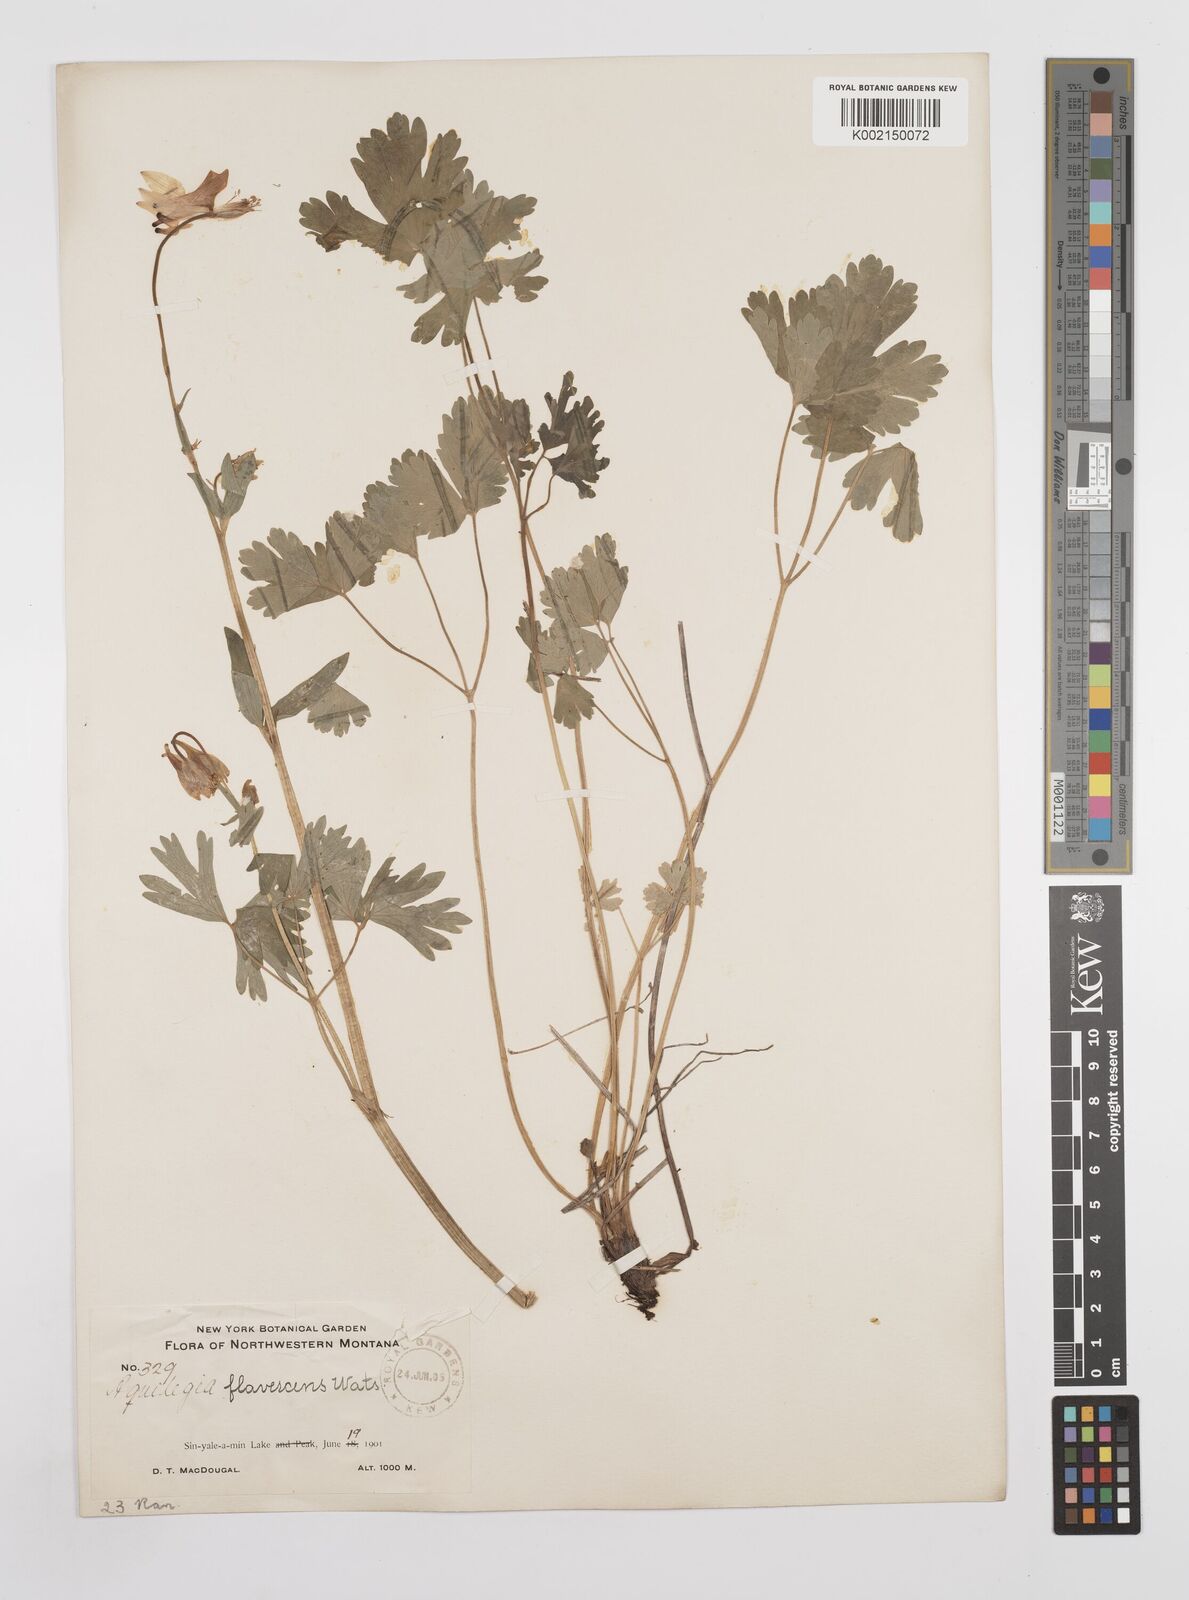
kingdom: Plantae
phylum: Tracheophyta
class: Magnoliopsida
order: Ranunculales
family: Ranunculaceae
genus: Aquilegia
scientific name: Aquilegia flavescens
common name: Yellow columbine
